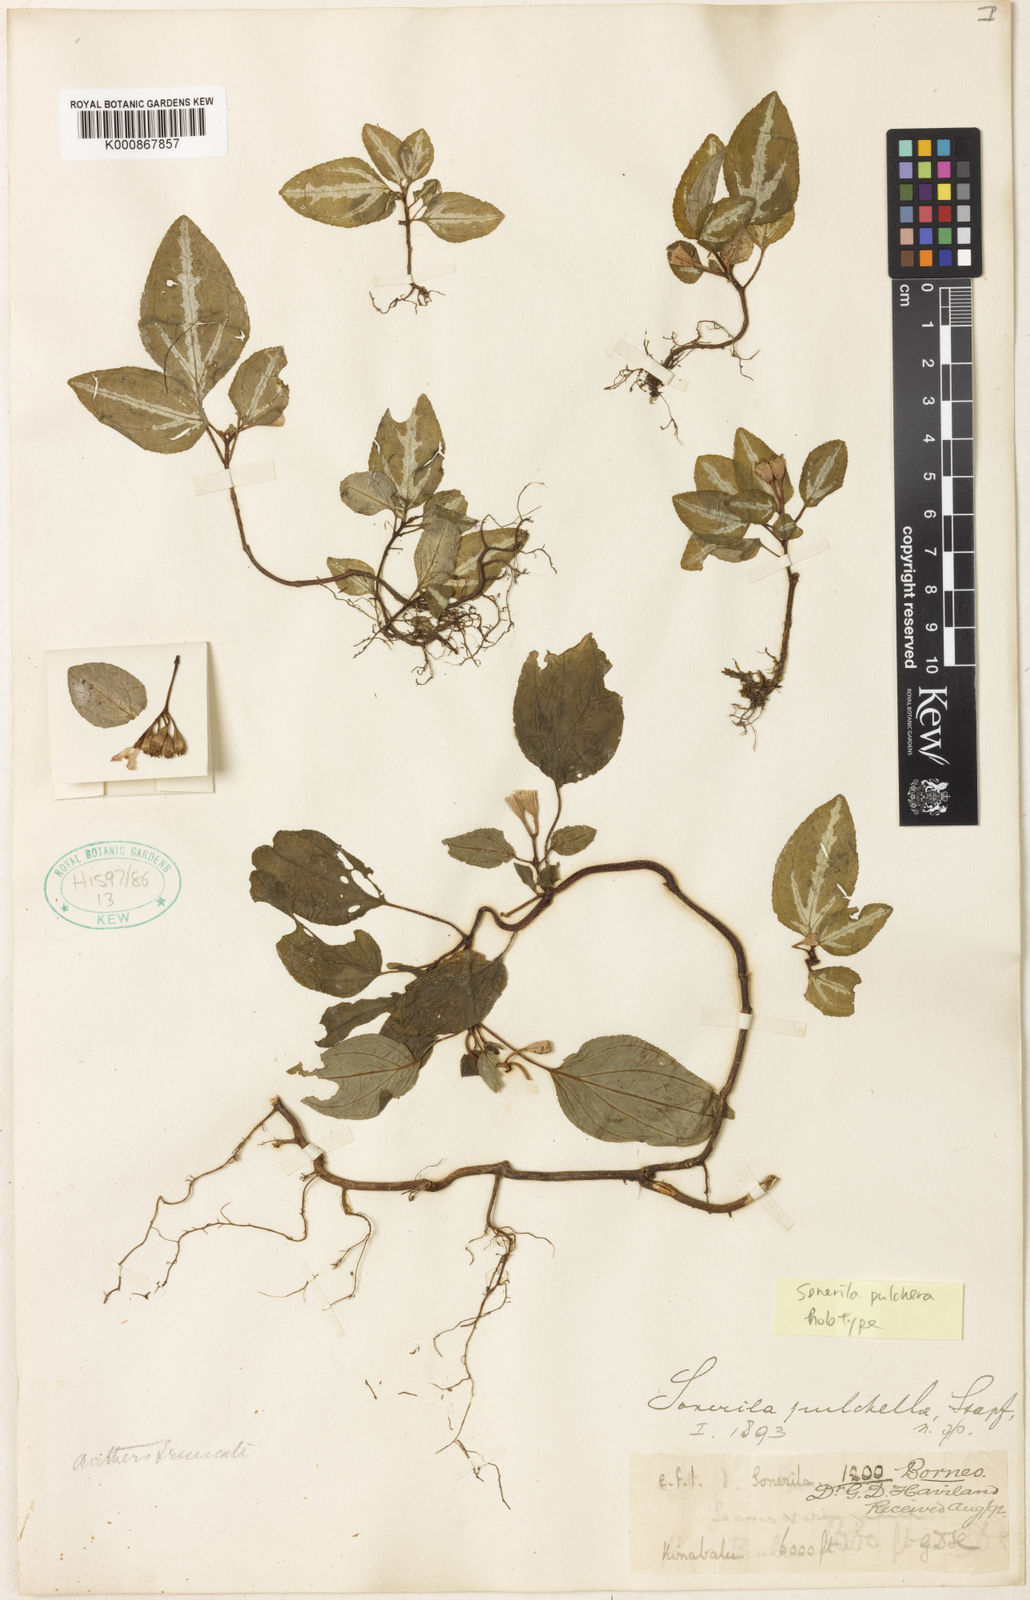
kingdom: Plantae
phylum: Tracheophyta
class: Magnoliopsida
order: Myrtales
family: Melastomataceae
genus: Sonerila
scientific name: Sonerila pulchella
